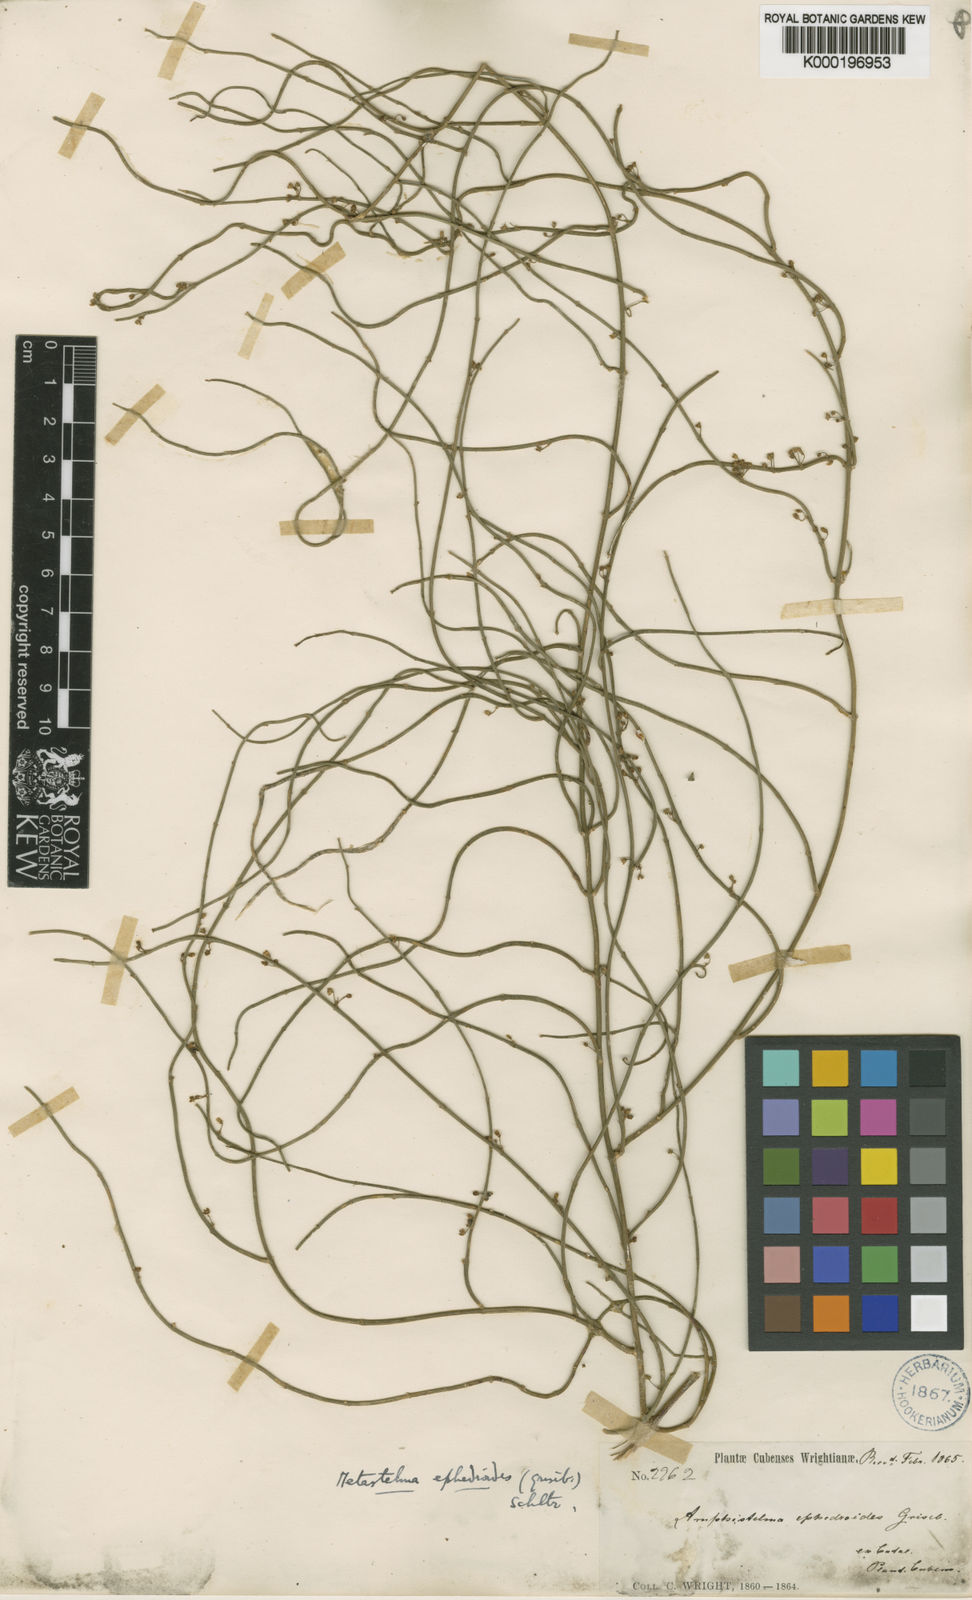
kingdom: Plantae
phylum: Tracheophyta
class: Magnoliopsida
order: Gentianales
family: Apocynaceae
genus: Orthosia
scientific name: Orthosia scoparia
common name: Leafless swallow-wort
